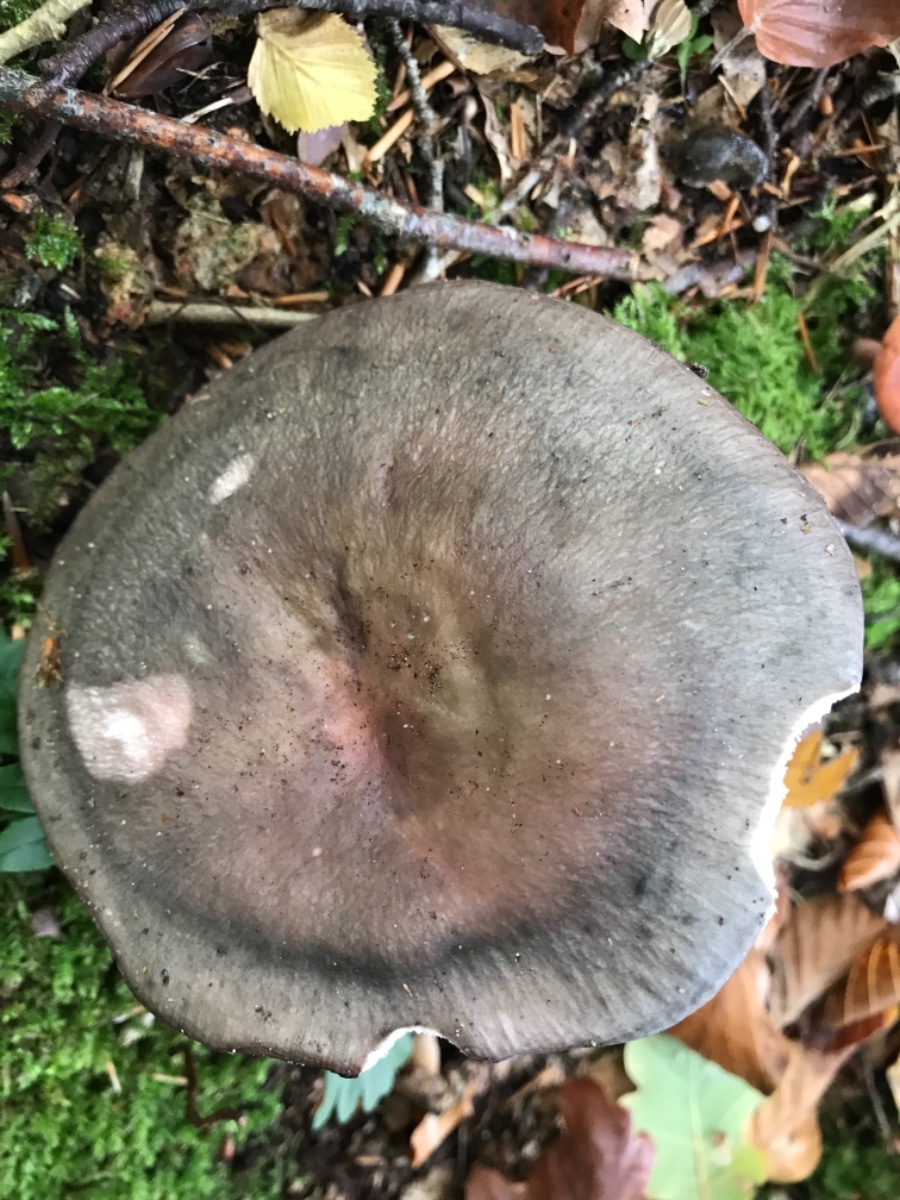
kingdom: Fungi
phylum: Basidiomycota
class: Agaricomycetes
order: Russulales
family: Russulaceae
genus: Russula
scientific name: Russula cyanoxantha
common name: broget skørhat
